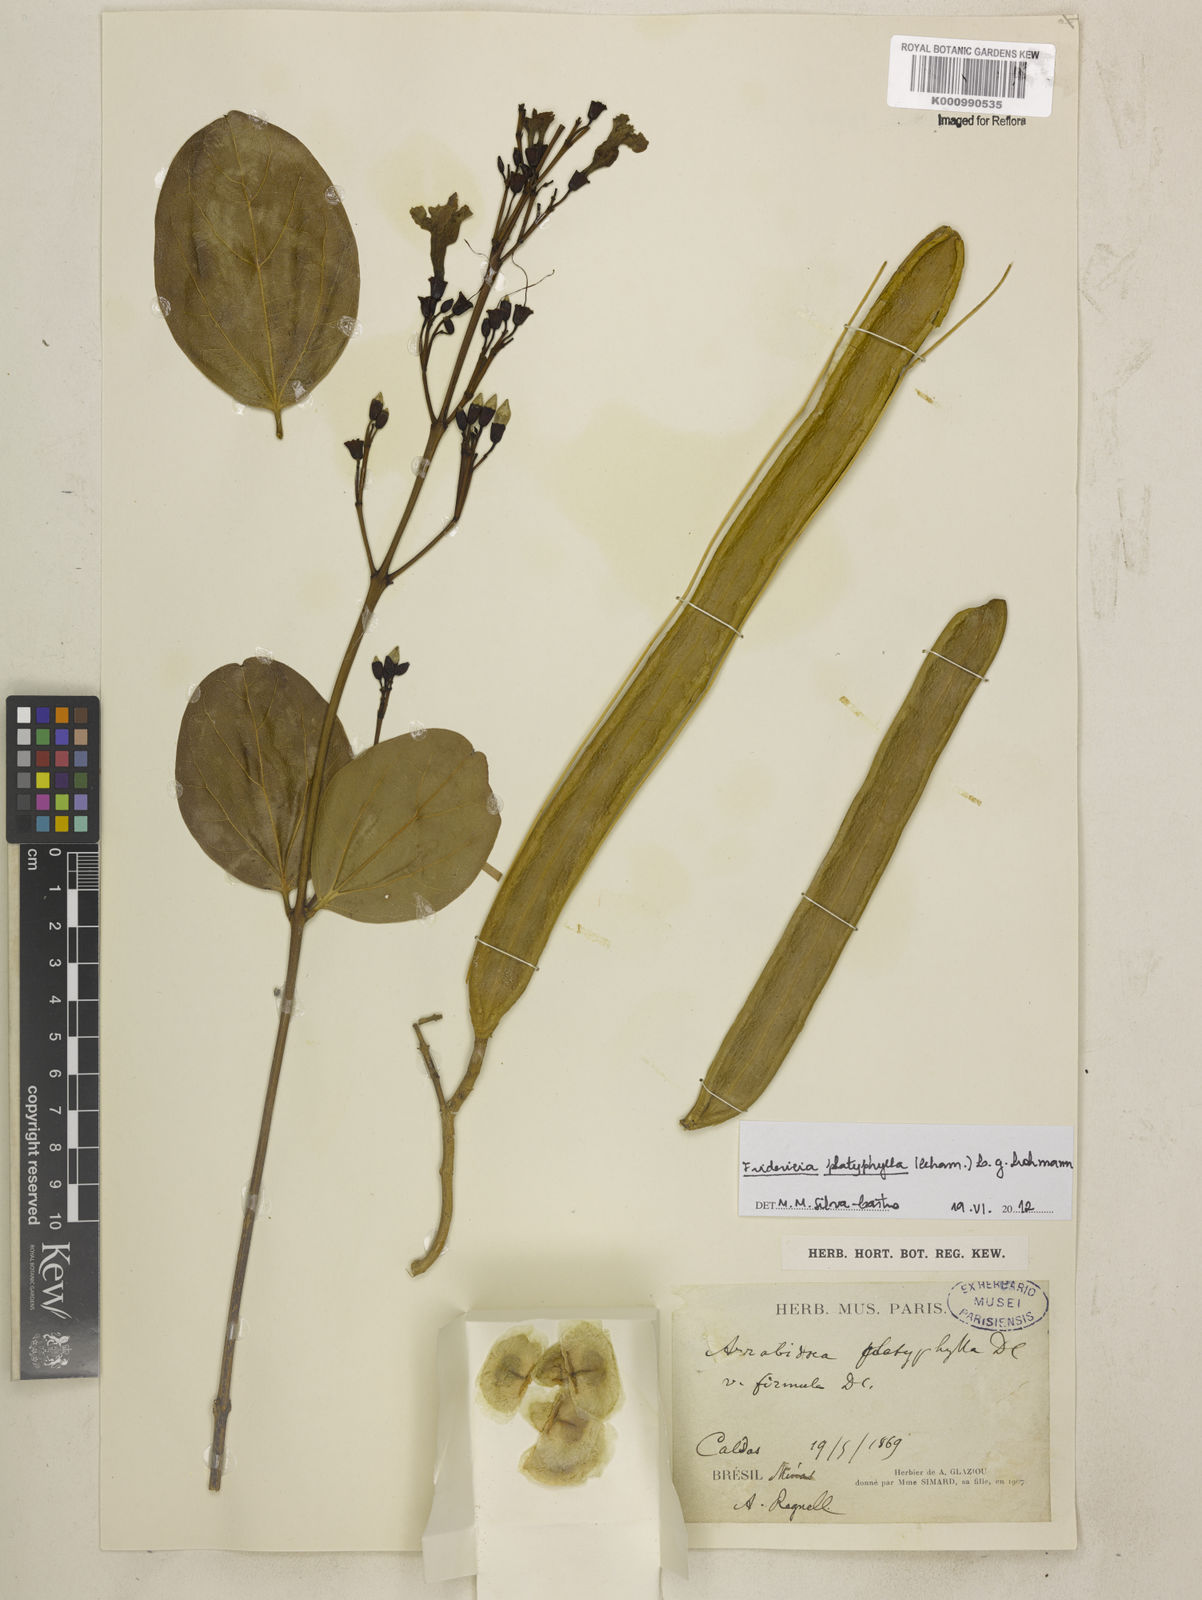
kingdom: Plantae
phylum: Tracheophyta
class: Magnoliopsida
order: Lamiales
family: Bignoniaceae
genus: Fridericia
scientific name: Fridericia platyphylla
